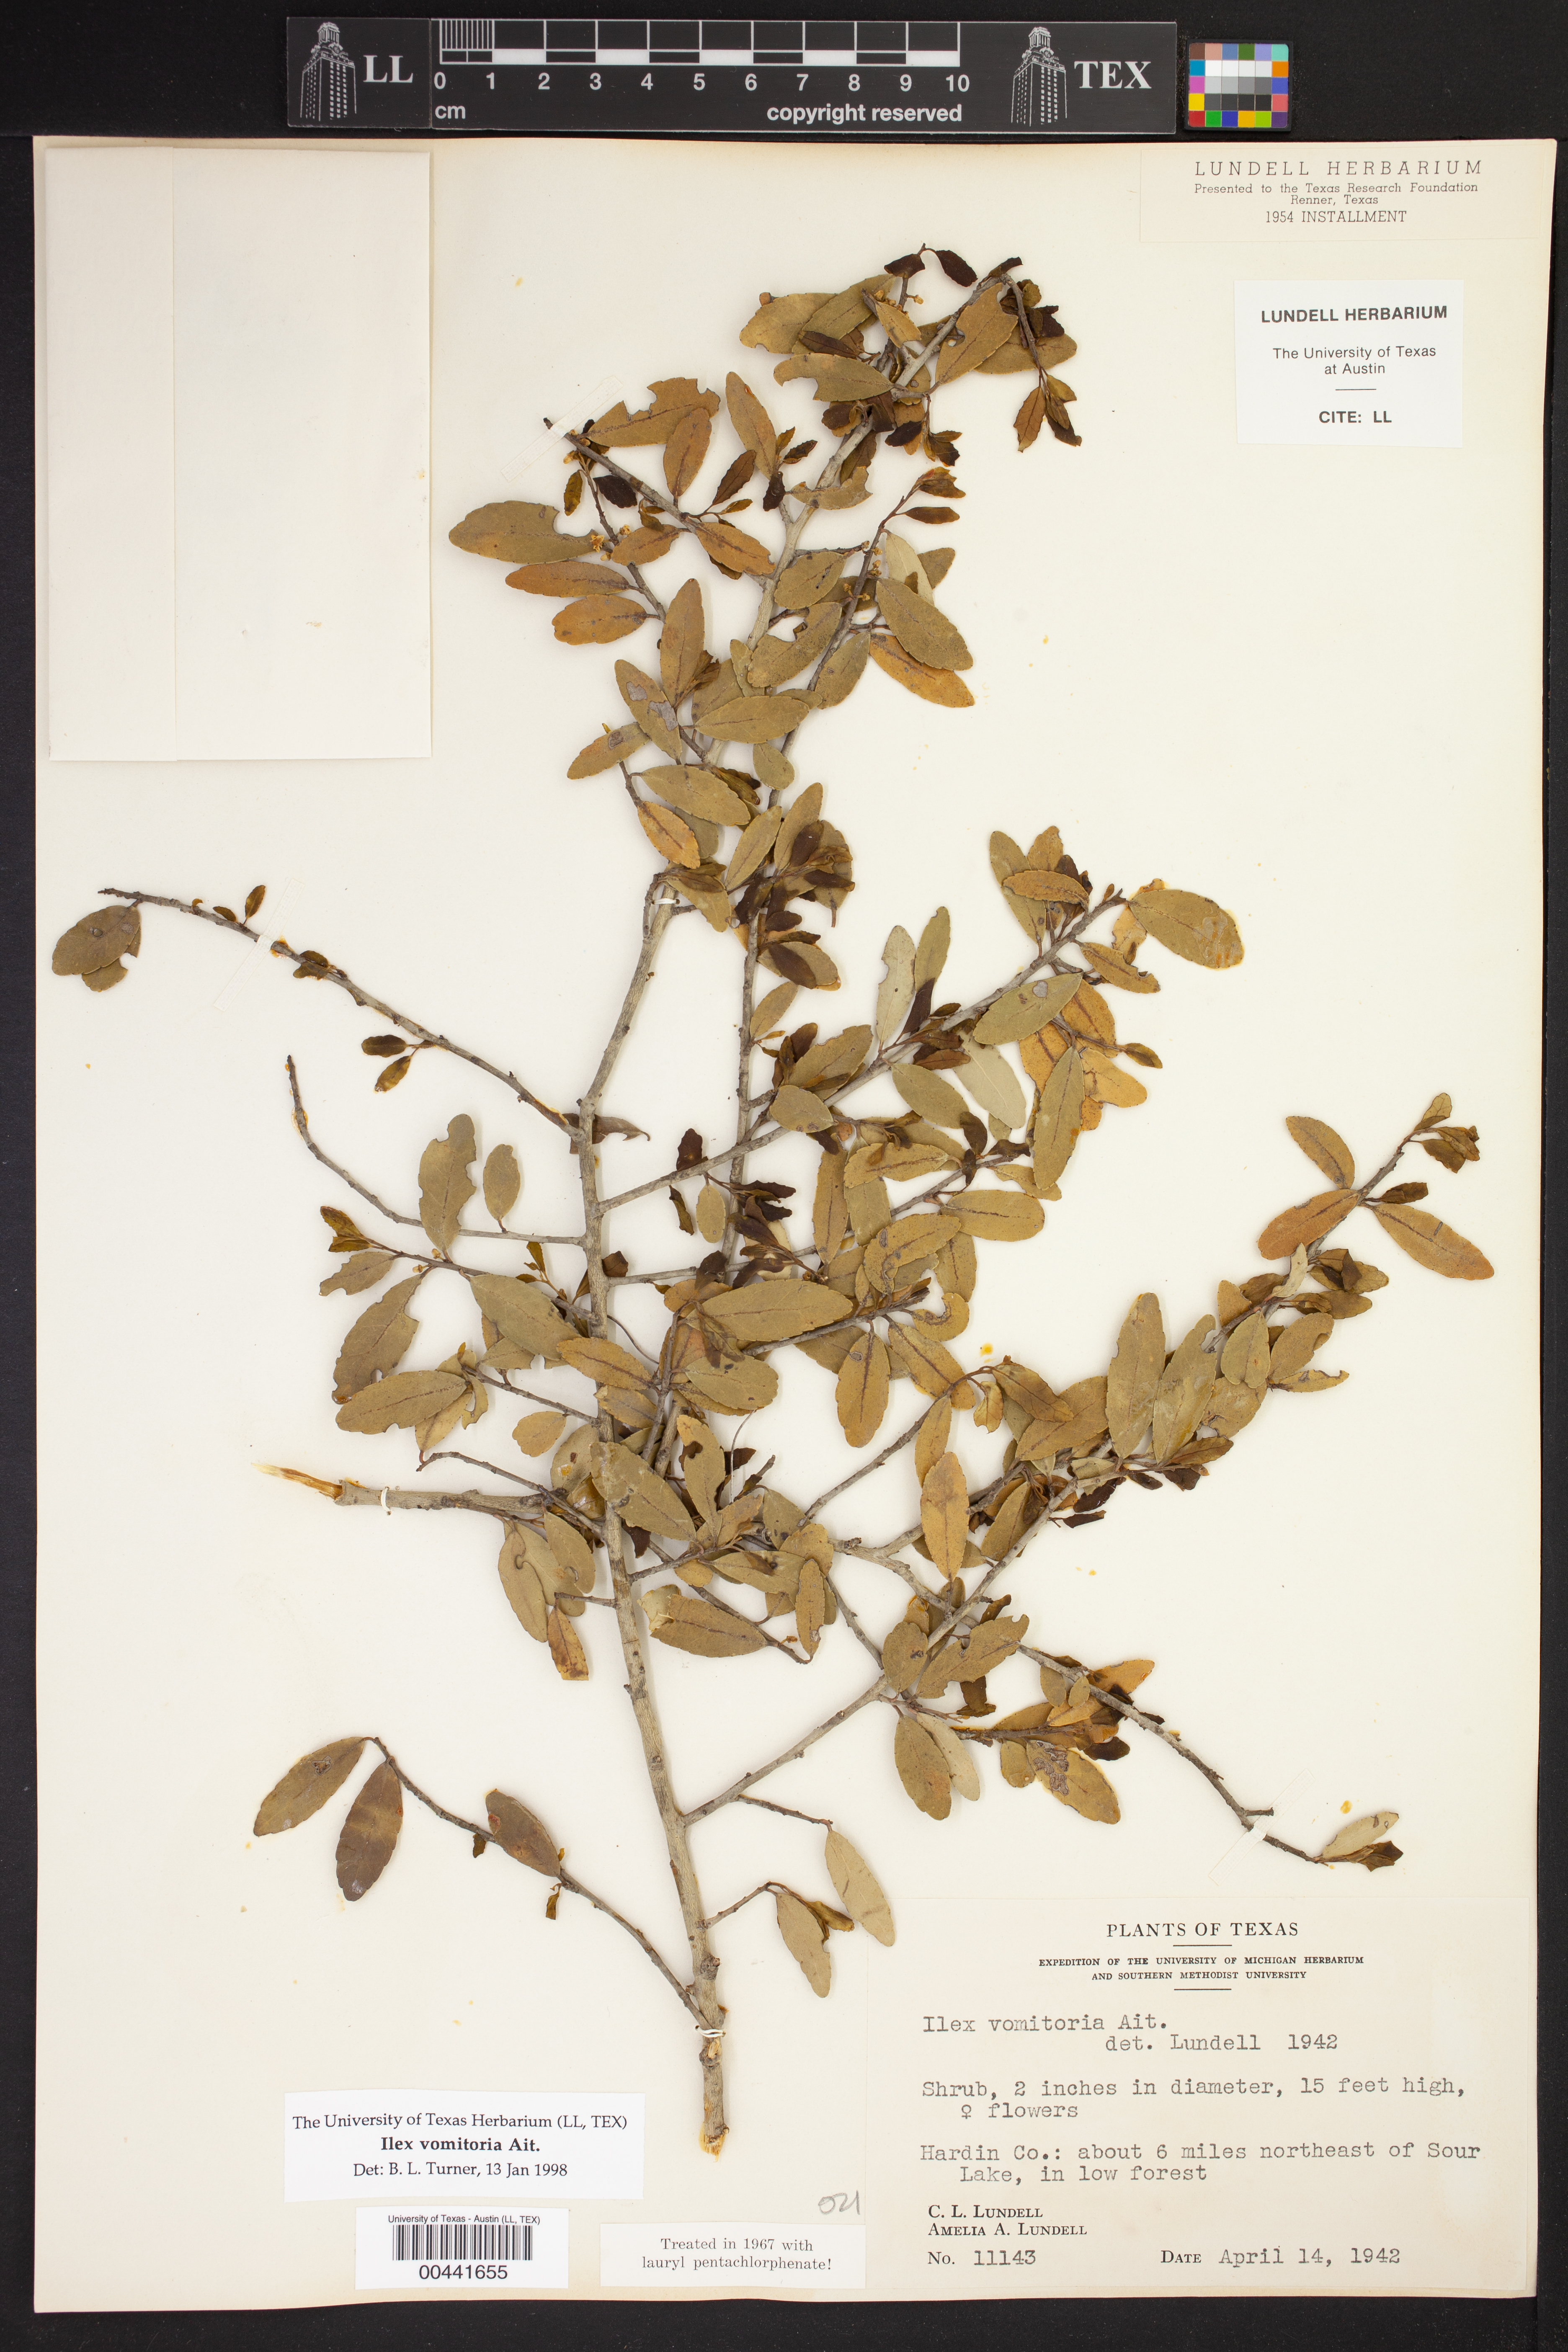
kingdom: Plantae
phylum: Tracheophyta
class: Magnoliopsida
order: Aquifoliales
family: Aquifoliaceae
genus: Ilex
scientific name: Ilex vomitoria
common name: Yaupon holly
